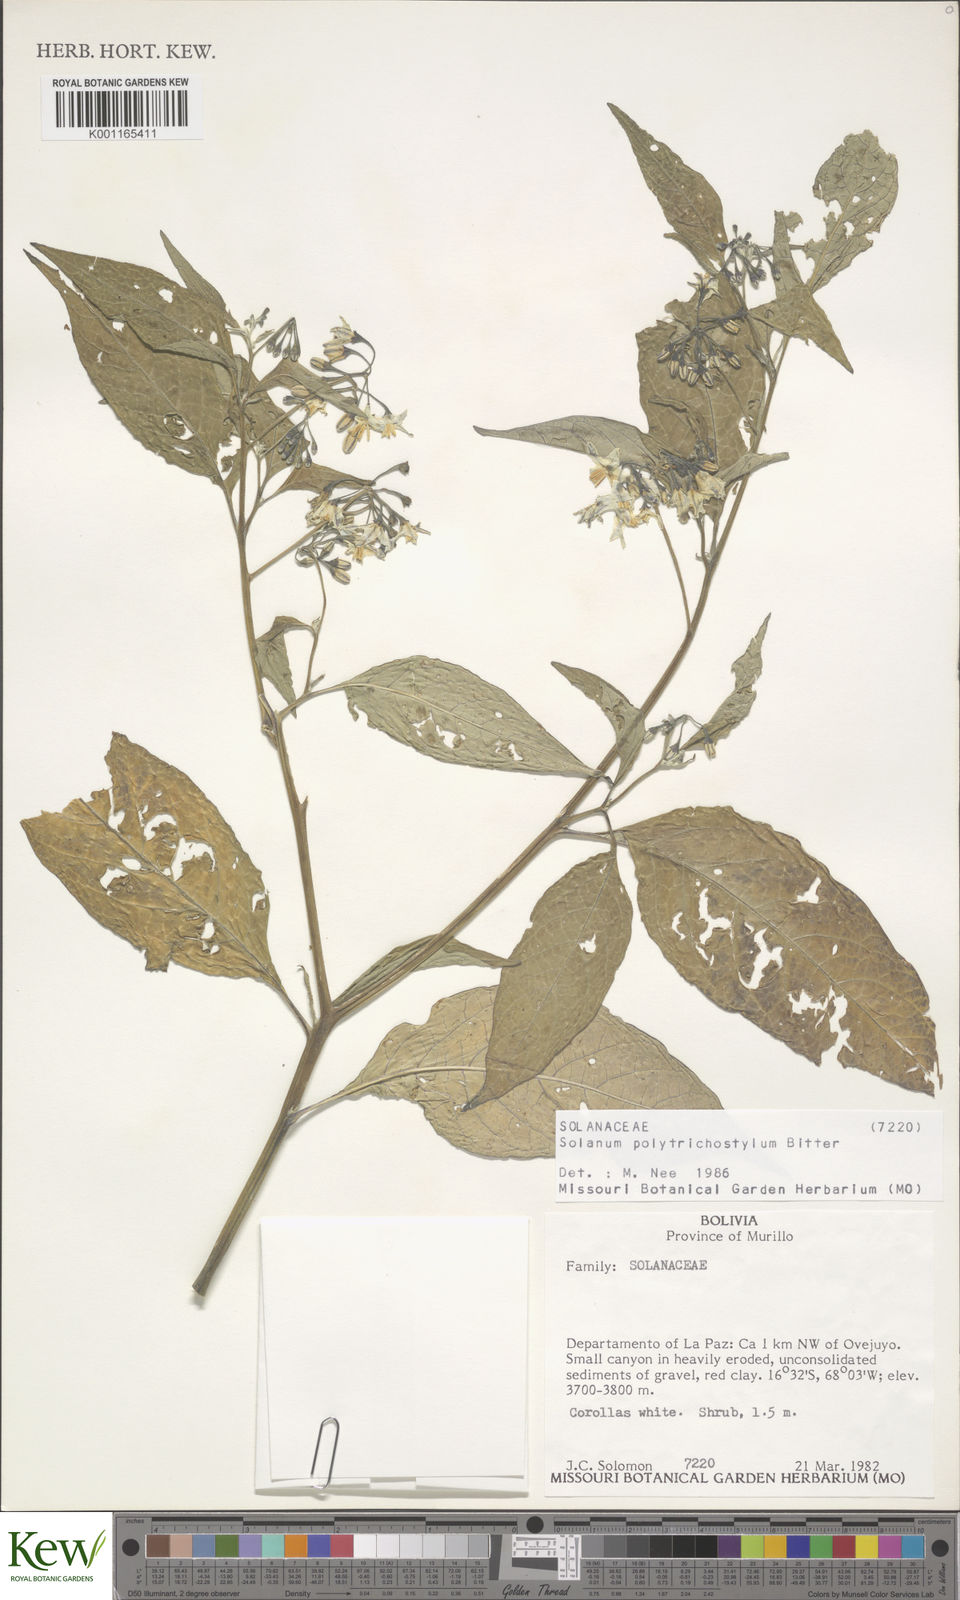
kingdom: Plantae
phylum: Tracheophyta
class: Magnoliopsida
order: Solanales
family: Solanaceae
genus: Solanum
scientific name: Solanum polytrichostylum
